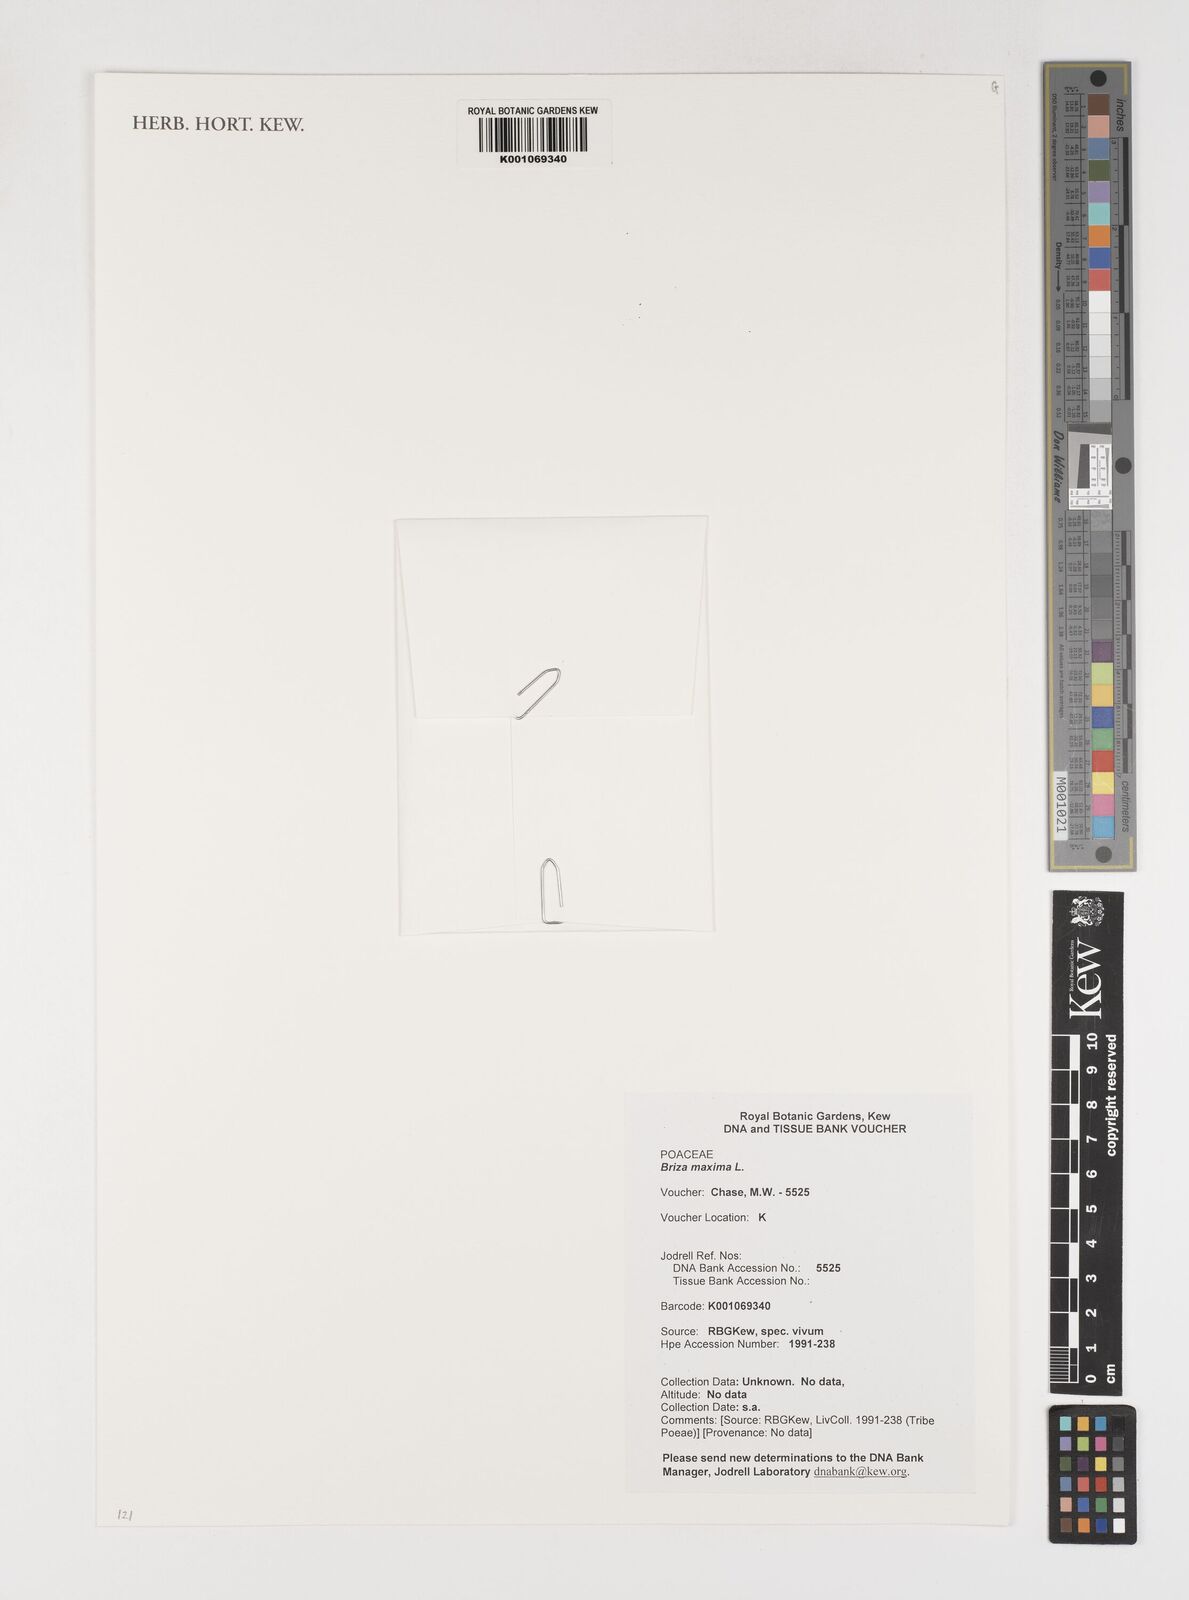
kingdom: Plantae
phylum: Tracheophyta
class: Liliopsida
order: Poales
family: Poaceae
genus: Briza
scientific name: Briza maxima
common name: Big quakinggrass
